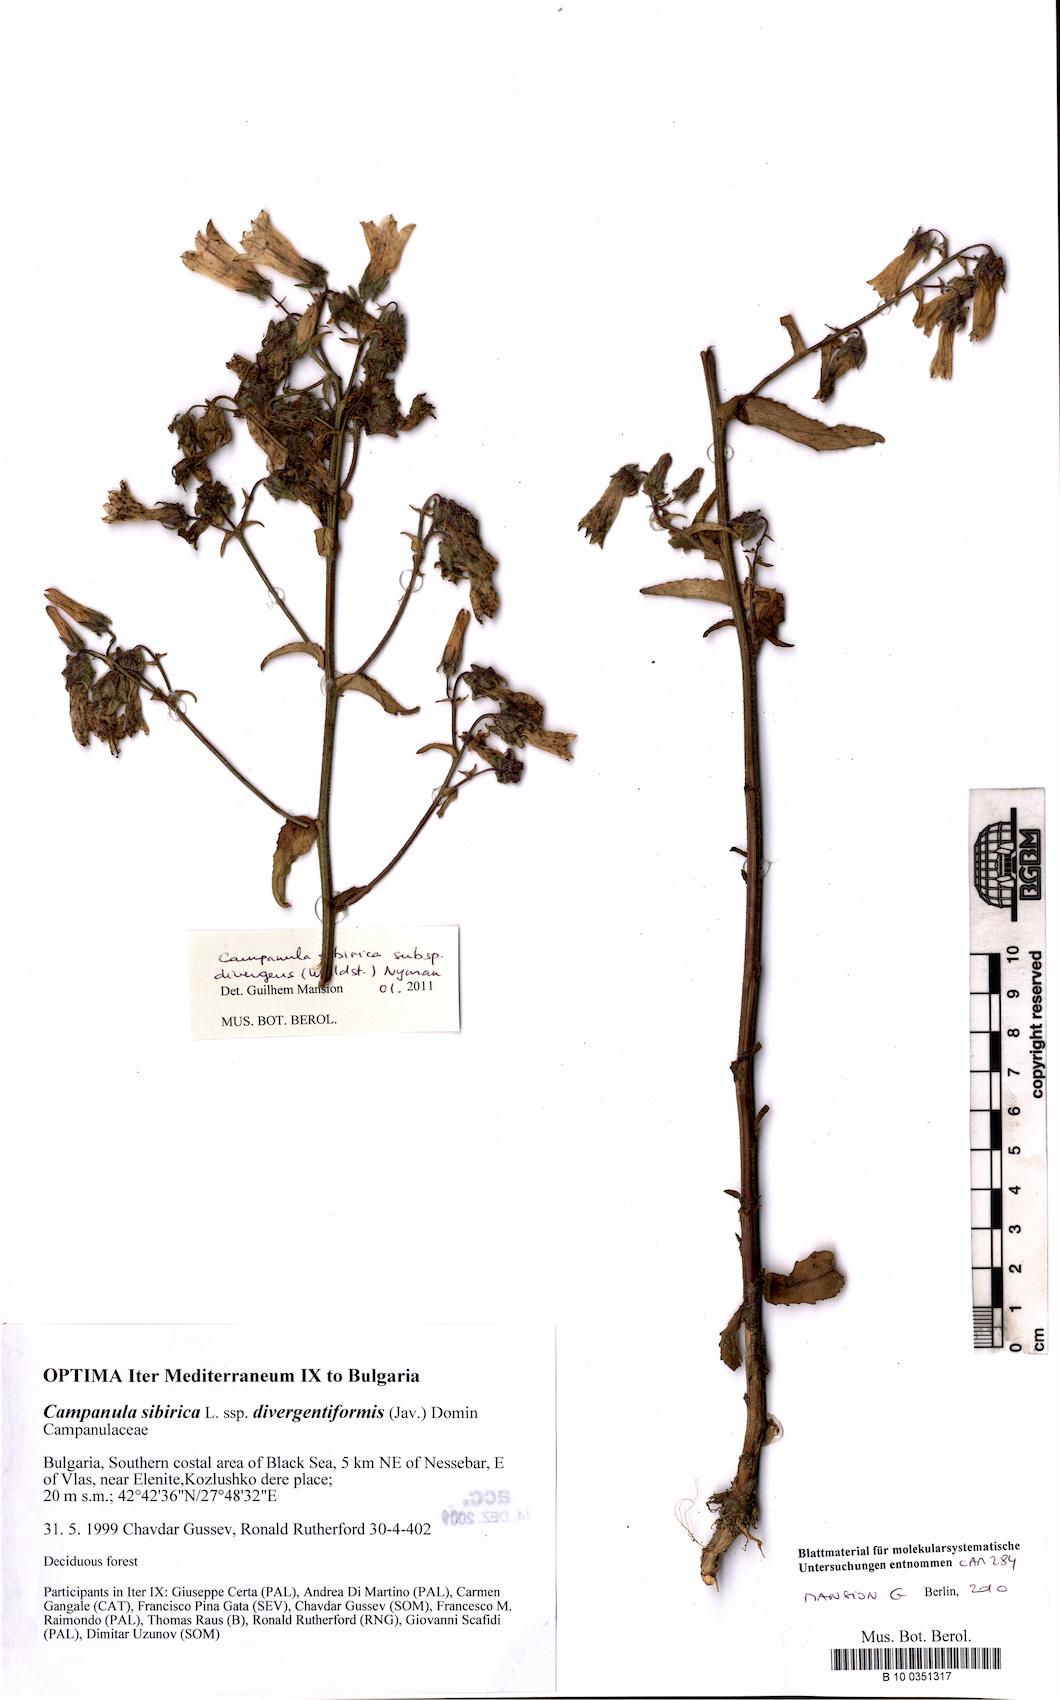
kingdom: Plantae
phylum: Tracheophyta
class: Magnoliopsida
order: Asterales
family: Campanulaceae
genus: Campanula
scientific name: Campanula sibirica
